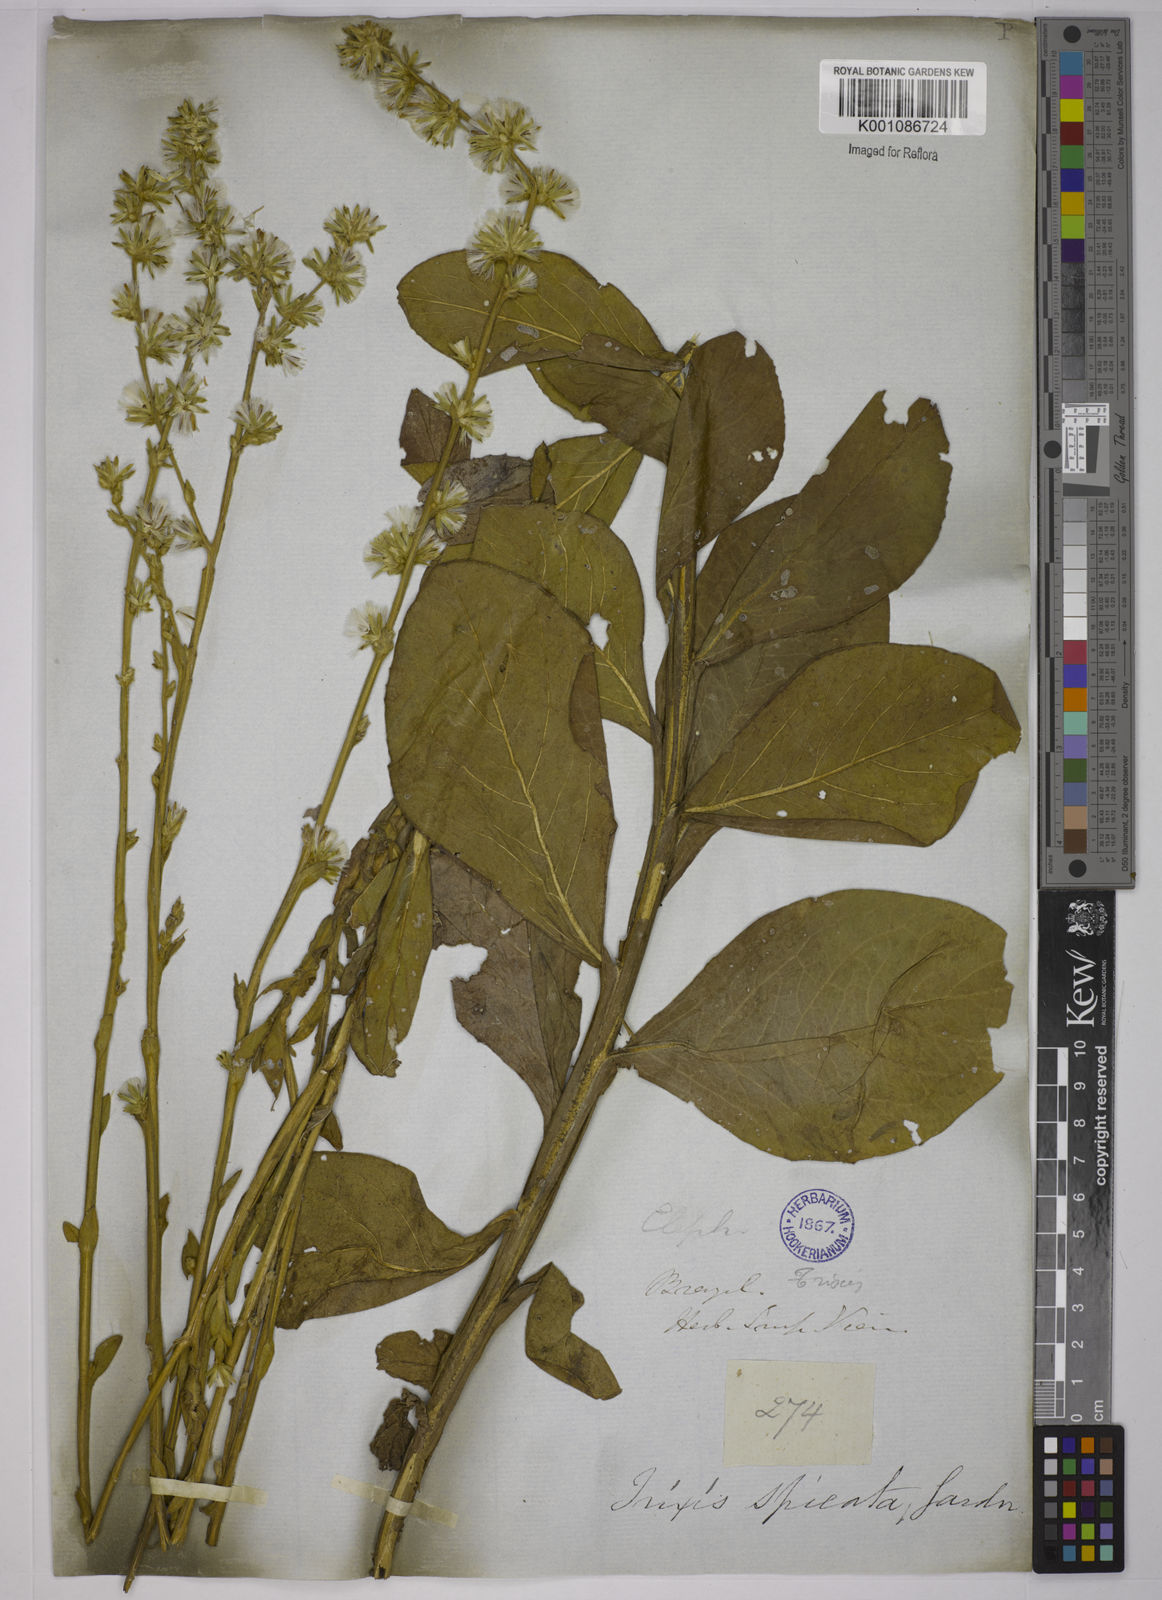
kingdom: Plantae
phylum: Tracheophyta
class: Magnoliopsida
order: Asterales
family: Asteraceae
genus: Trixis
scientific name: Trixis spicata
